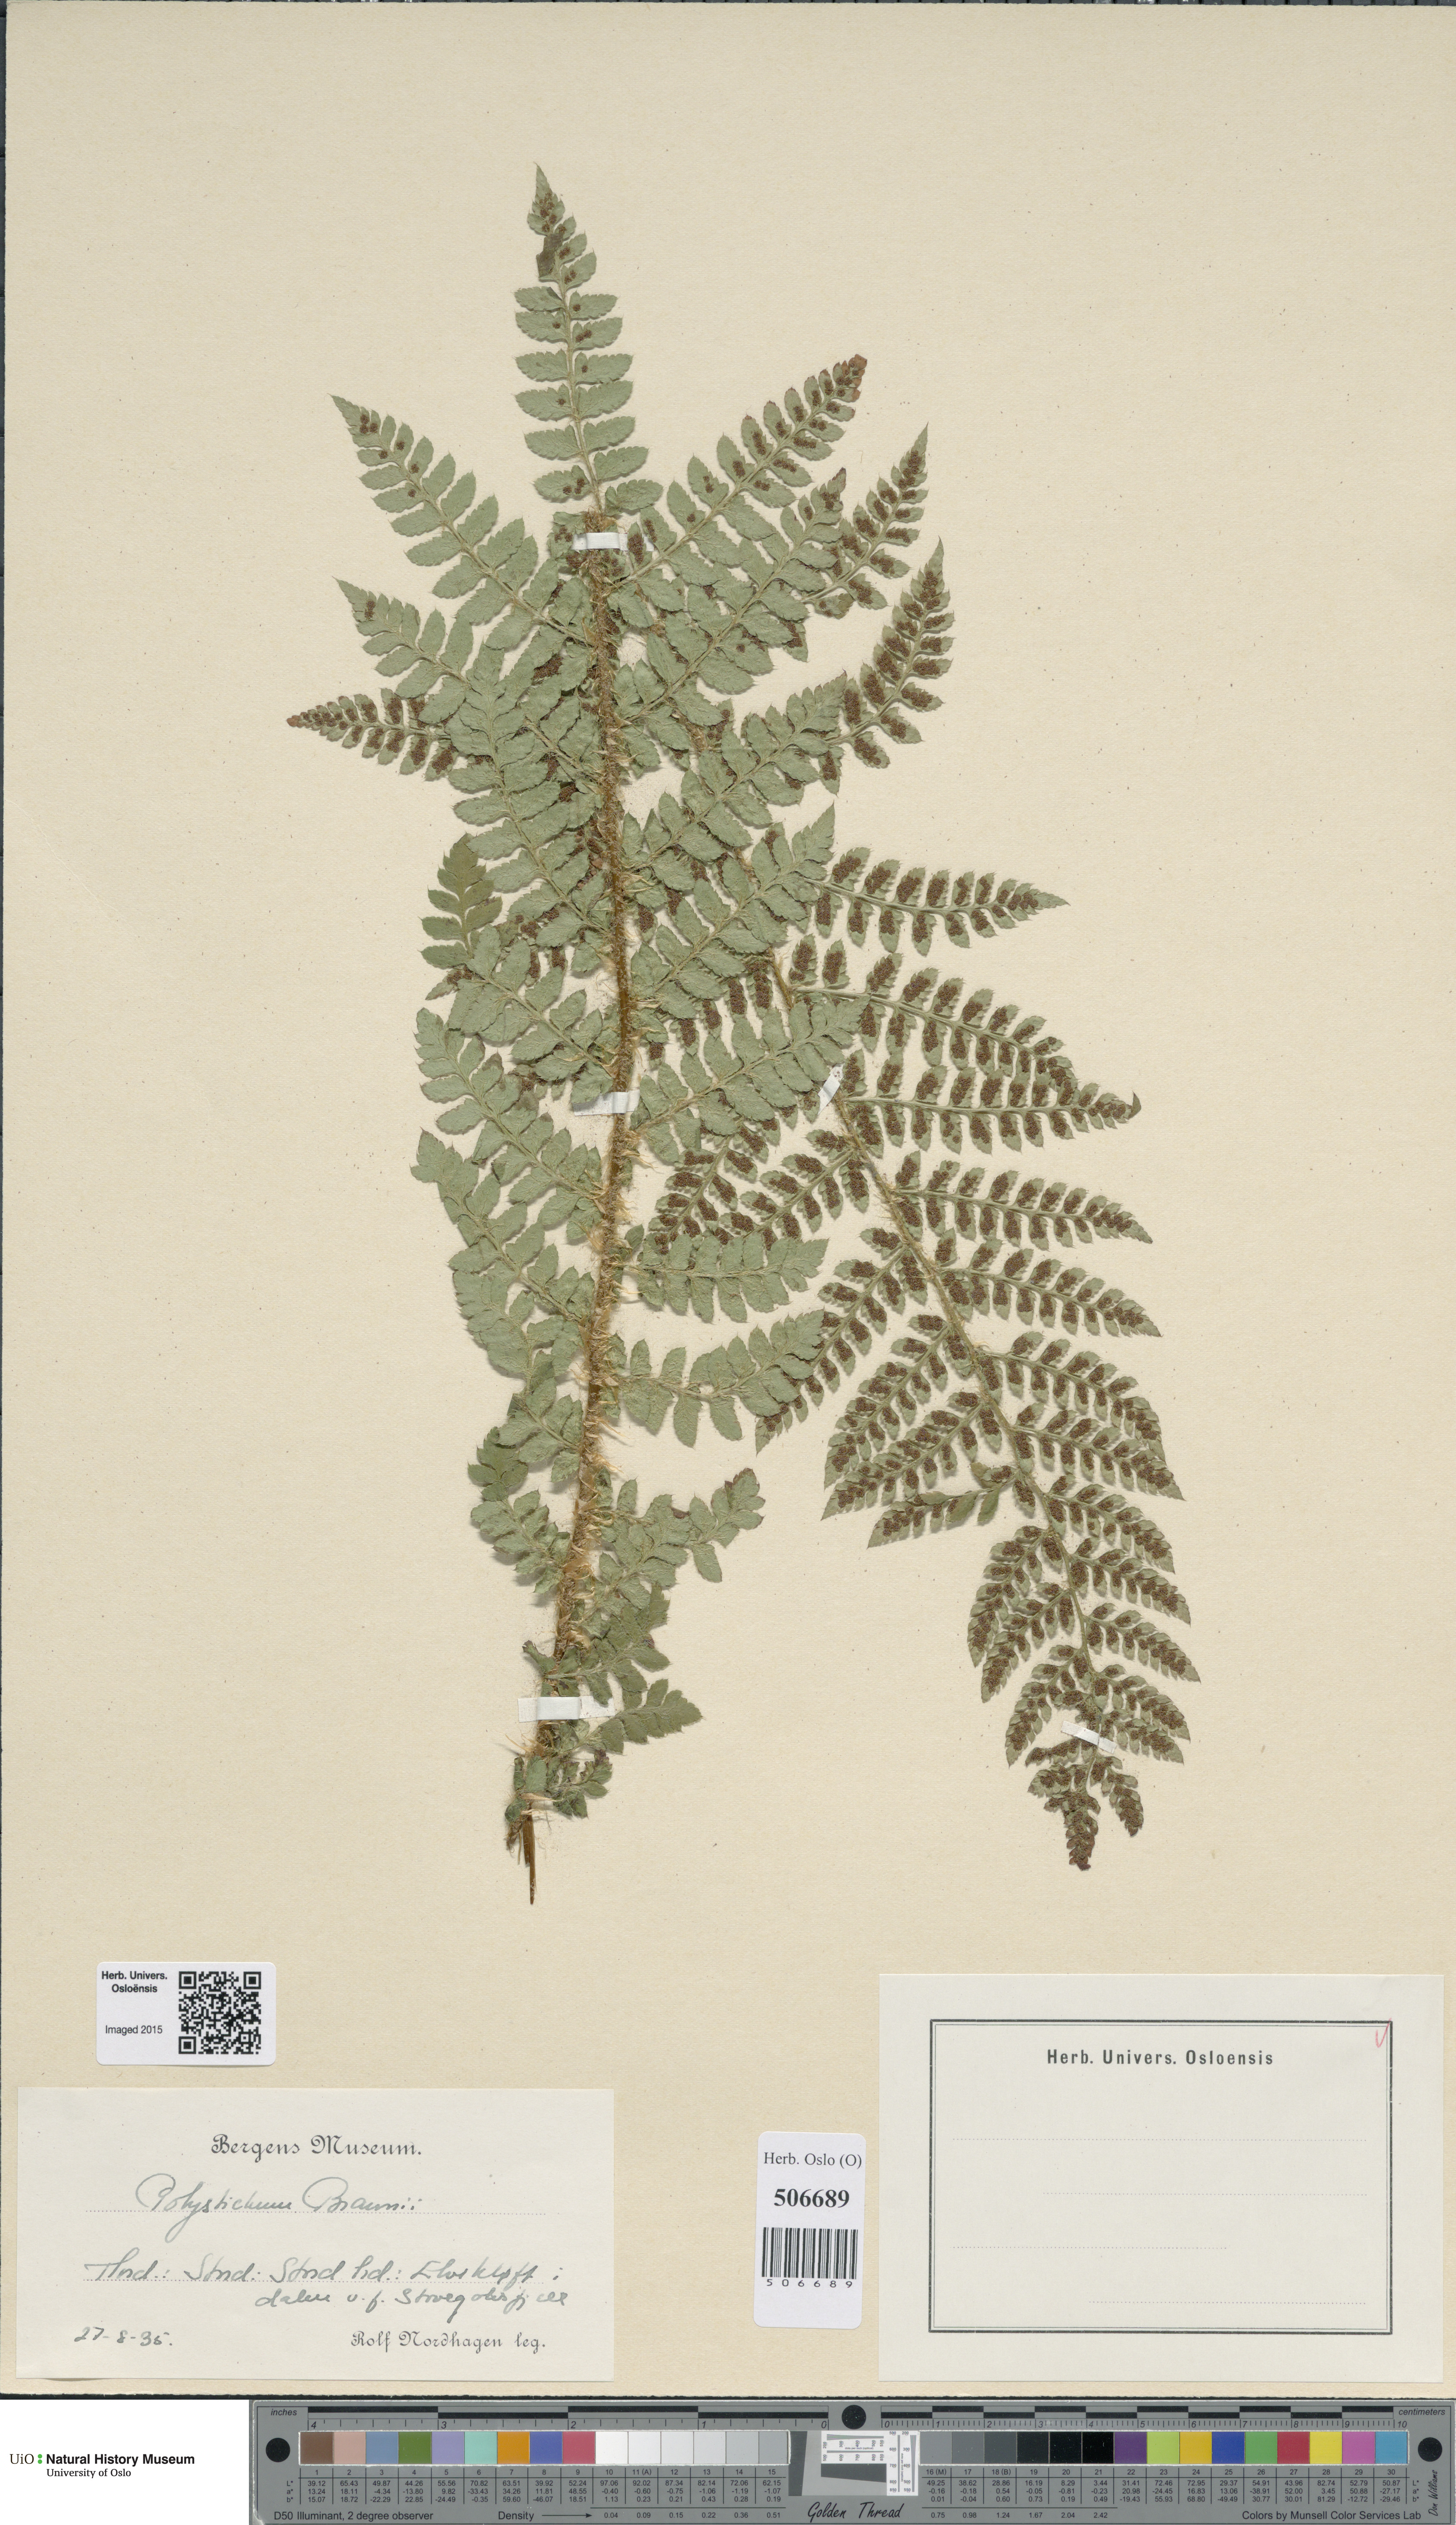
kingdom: Plantae
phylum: Tracheophyta
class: Polypodiopsida
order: Polypodiales
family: Dryopteridaceae
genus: Polystichum
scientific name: Polystichum braunii
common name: Braun's holly fern
